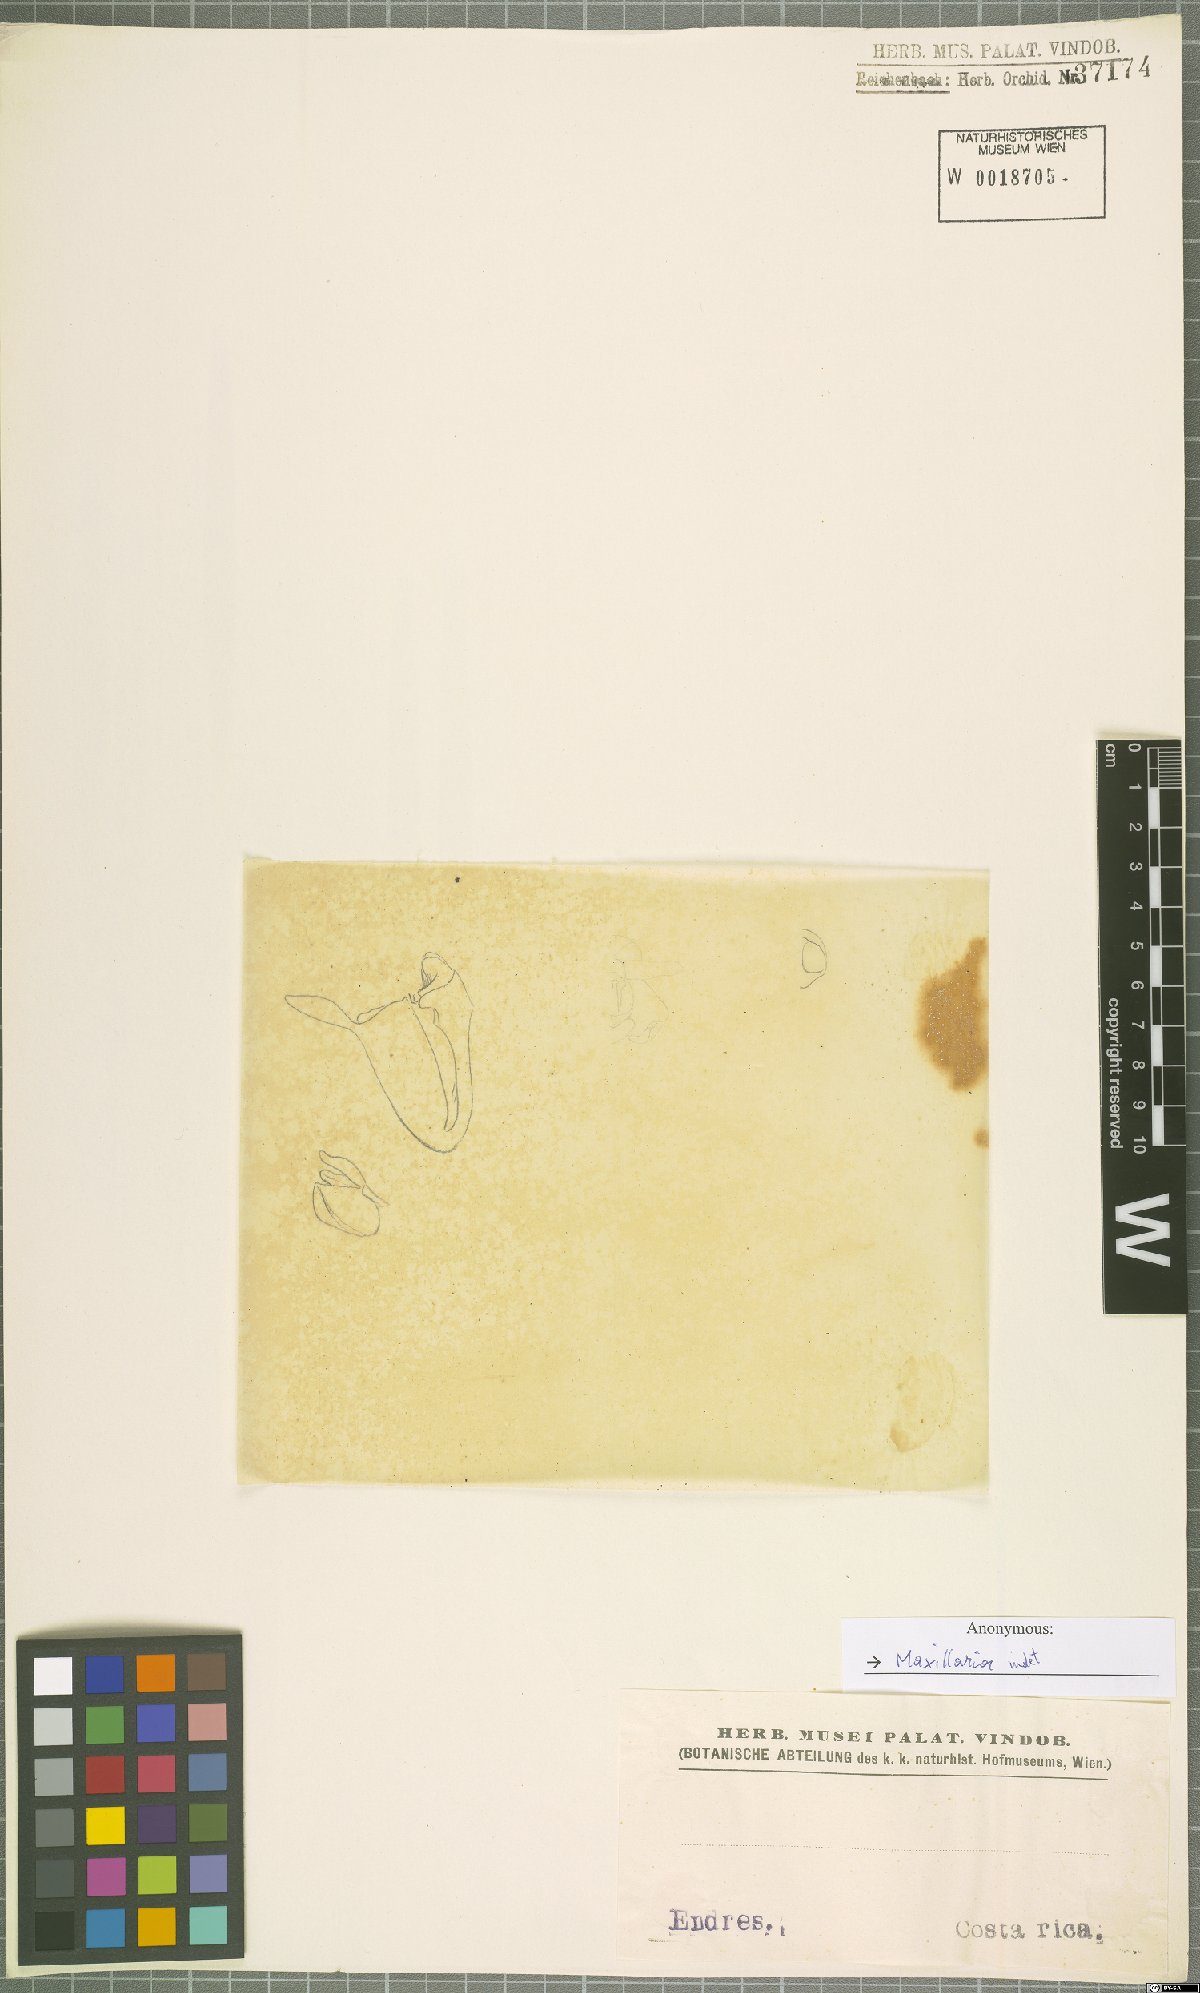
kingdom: Plantae
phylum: Tracheophyta
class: Liliopsida
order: Asparagales
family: Orchidaceae
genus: Maxillaria
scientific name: Maxillaria
